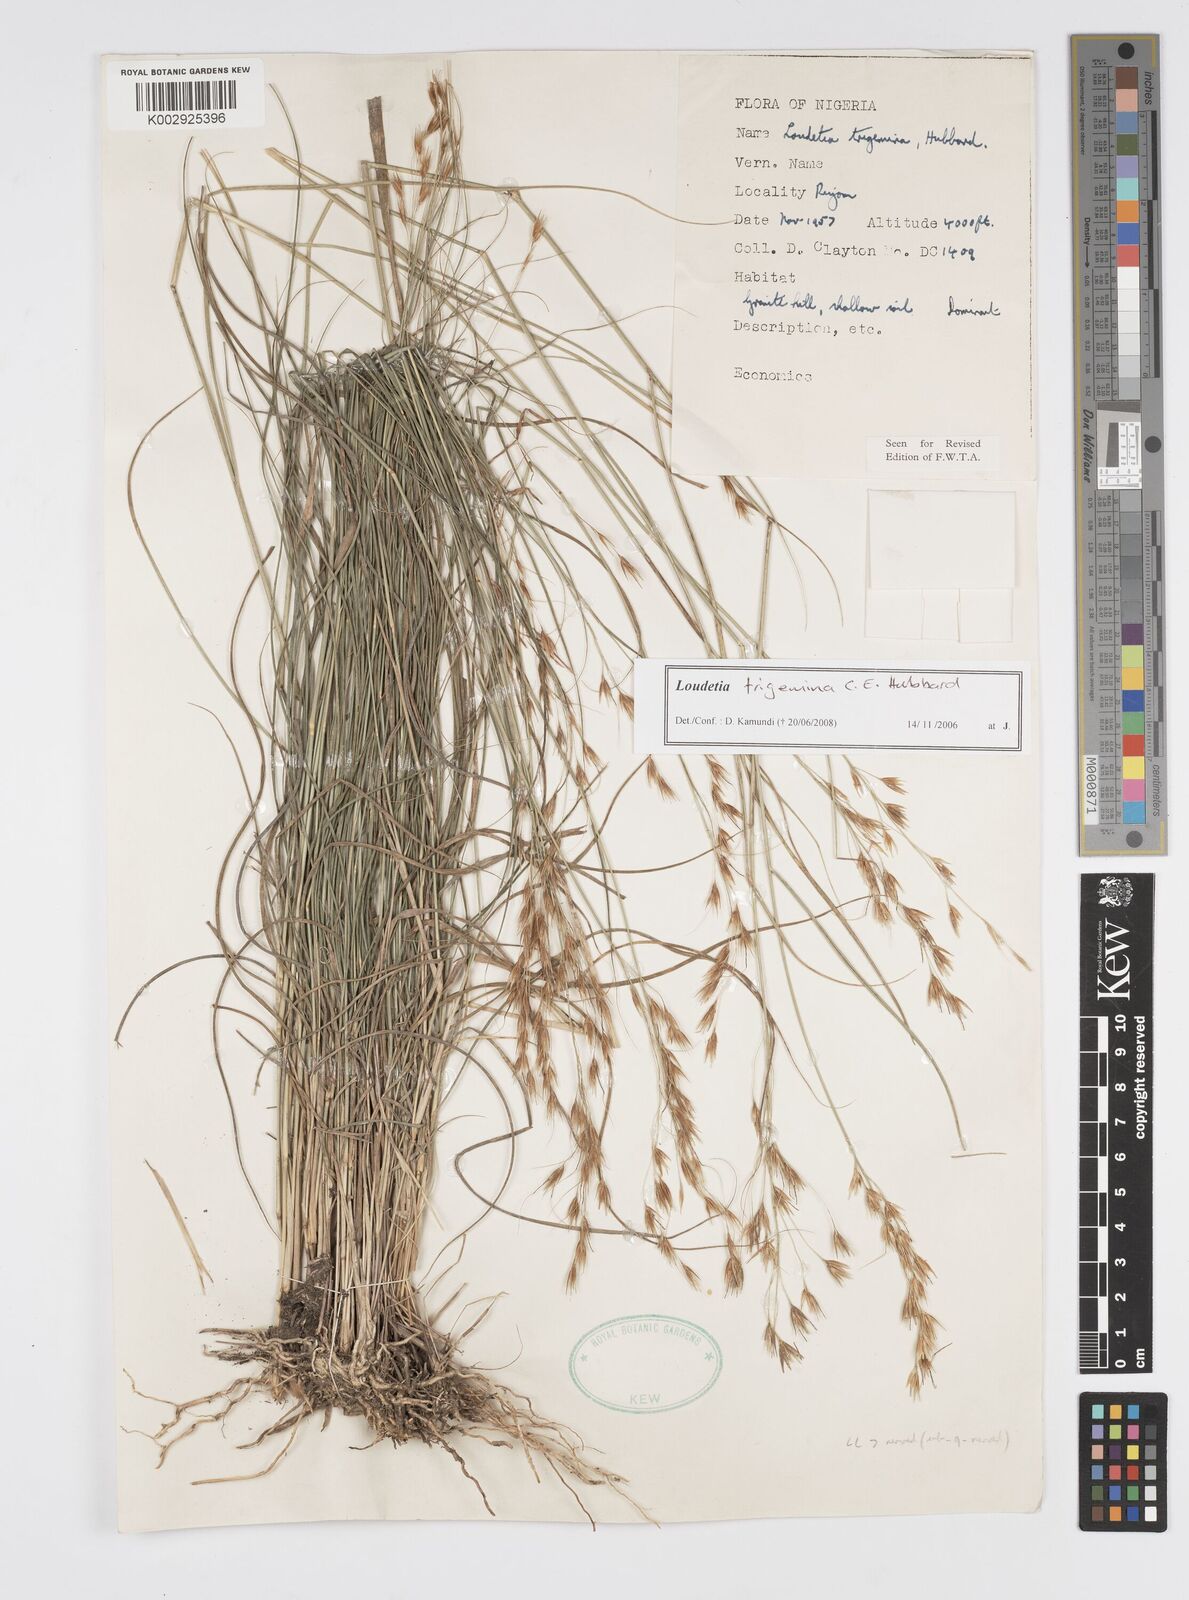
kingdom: Plantae
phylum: Tracheophyta
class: Liliopsida
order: Poales
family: Poaceae
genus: Loudetiopsis
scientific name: Loudetiopsis trigemina
